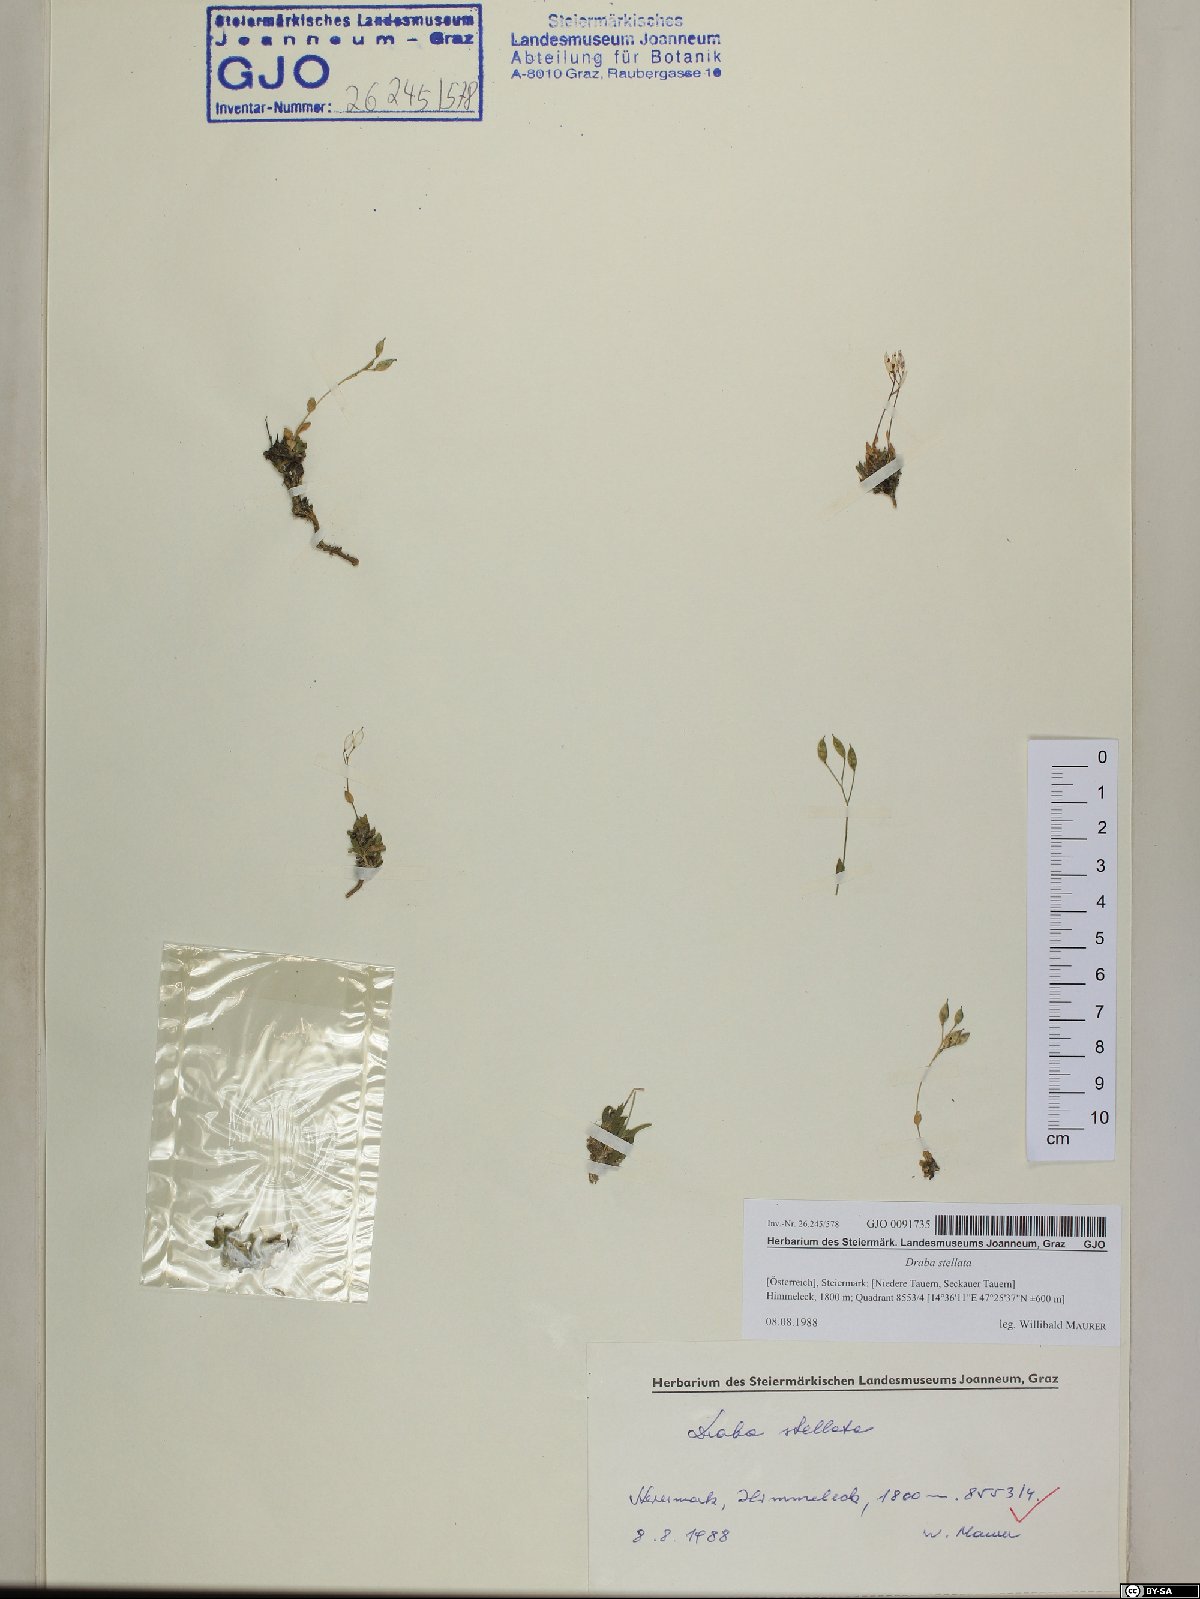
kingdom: Plantae
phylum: Tracheophyta
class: Magnoliopsida
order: Brassicales
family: Brassicaceae
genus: Draba
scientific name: Draba stellata
